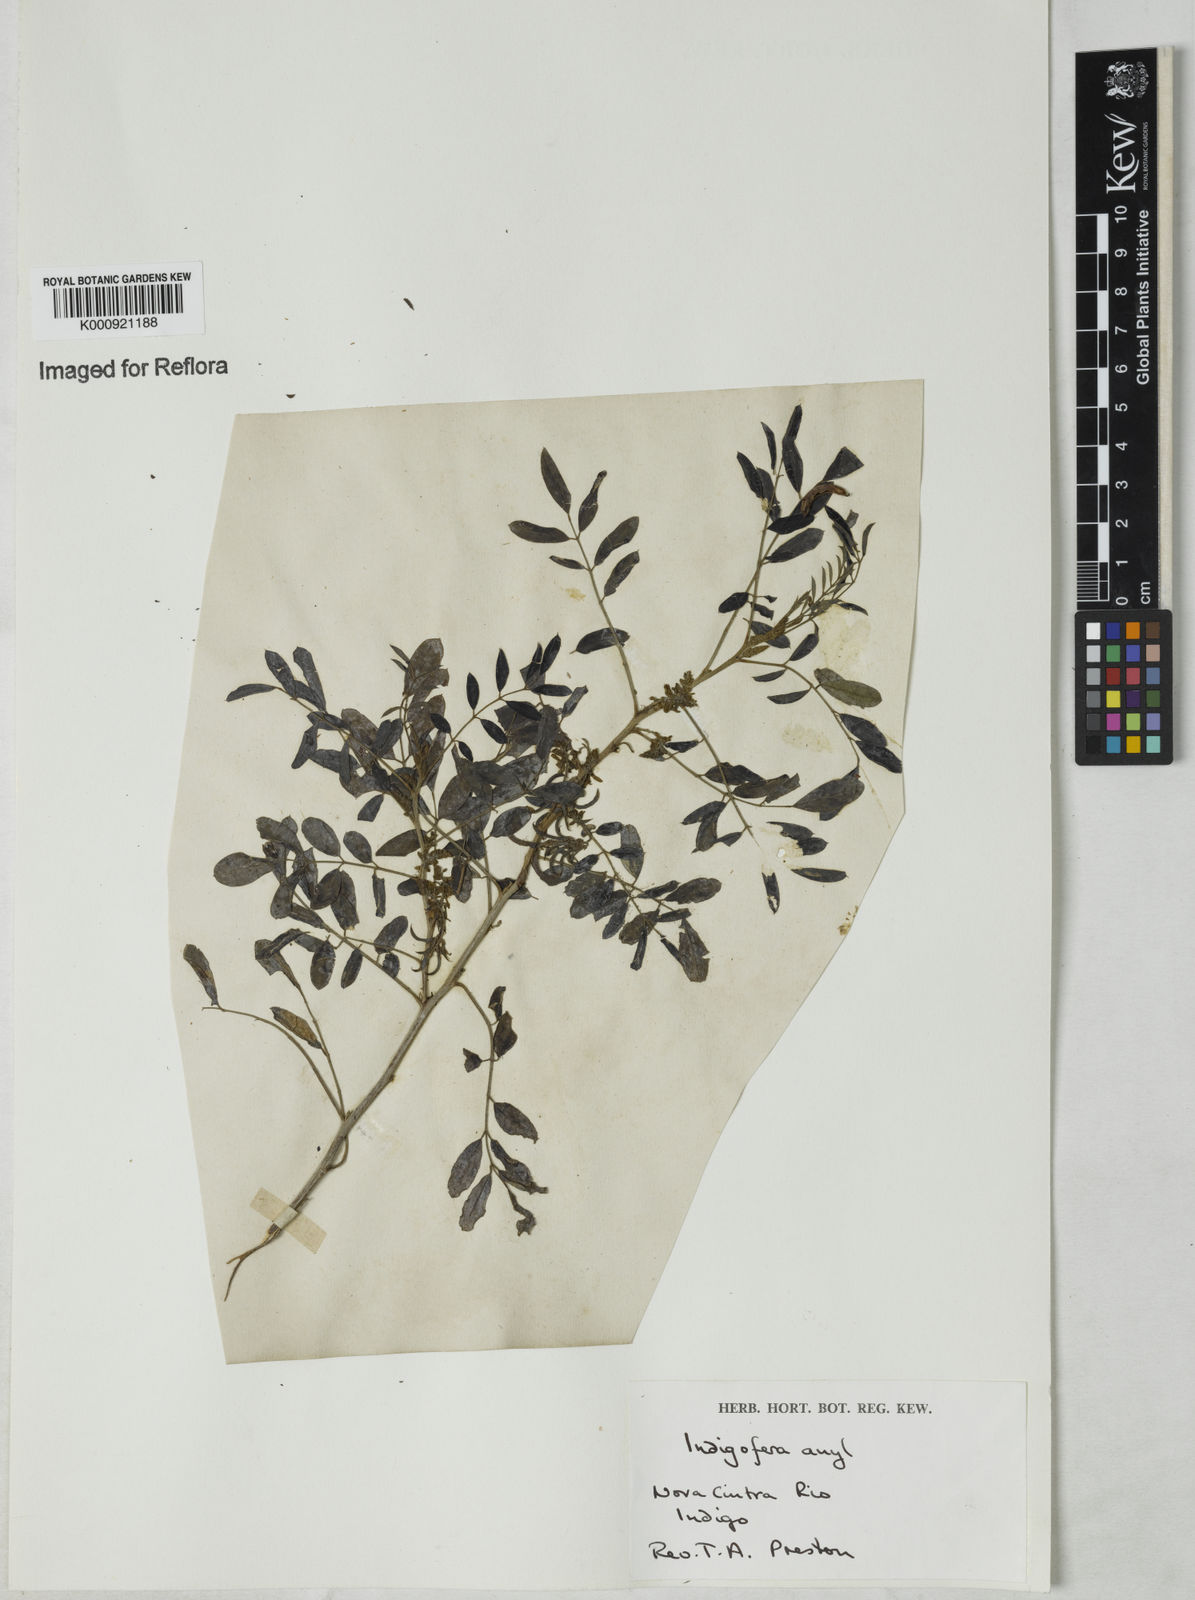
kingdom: Plantae
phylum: Tracheophyta
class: Magnoliopsida
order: Fabales
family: Fabaceae
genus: Indigofera
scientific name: Indigofera suffruticosa
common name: Anil de pasto
